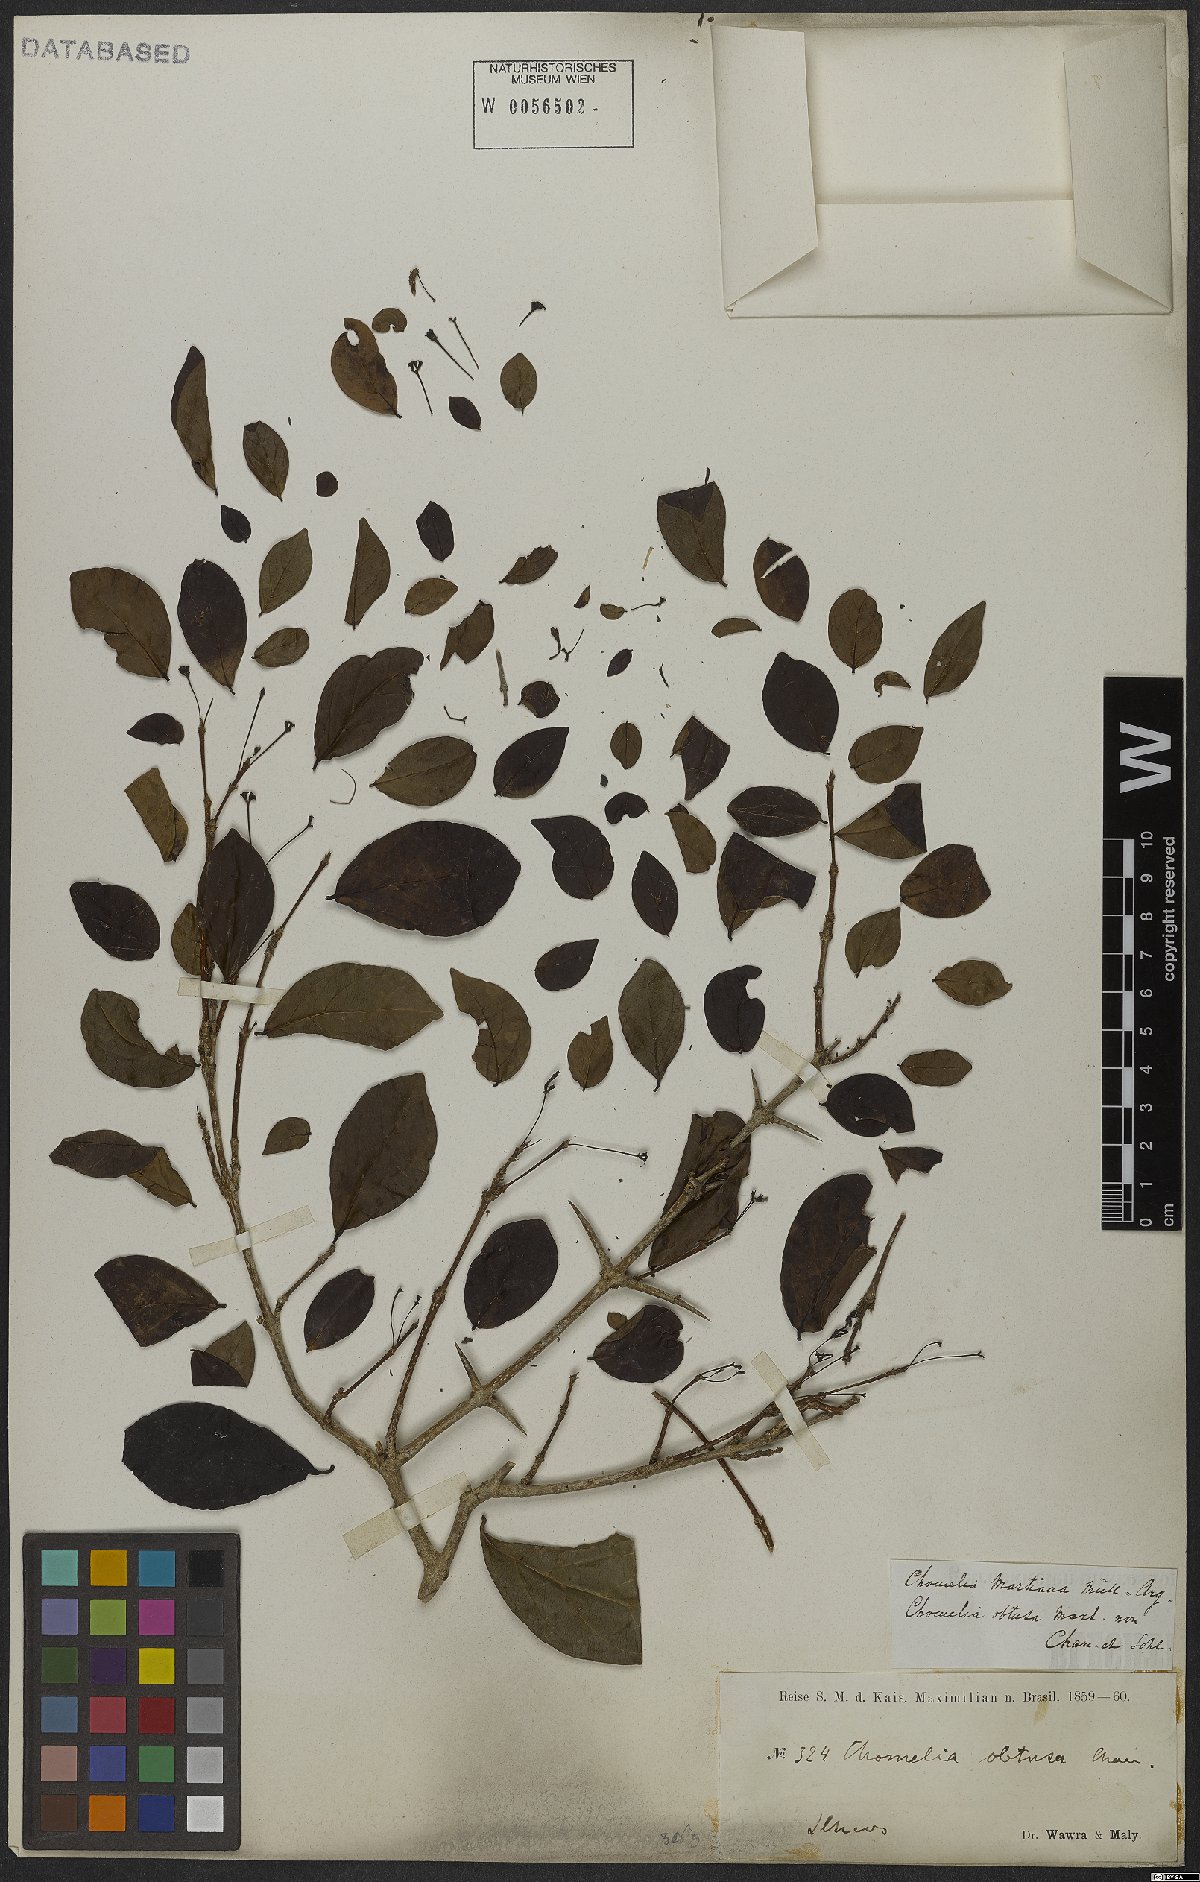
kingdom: Plantae
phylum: Tracheophyta
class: Magnoliopsida
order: Gentianales
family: Rubiaceae
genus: Chomelia
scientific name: Chomelia obtusa
